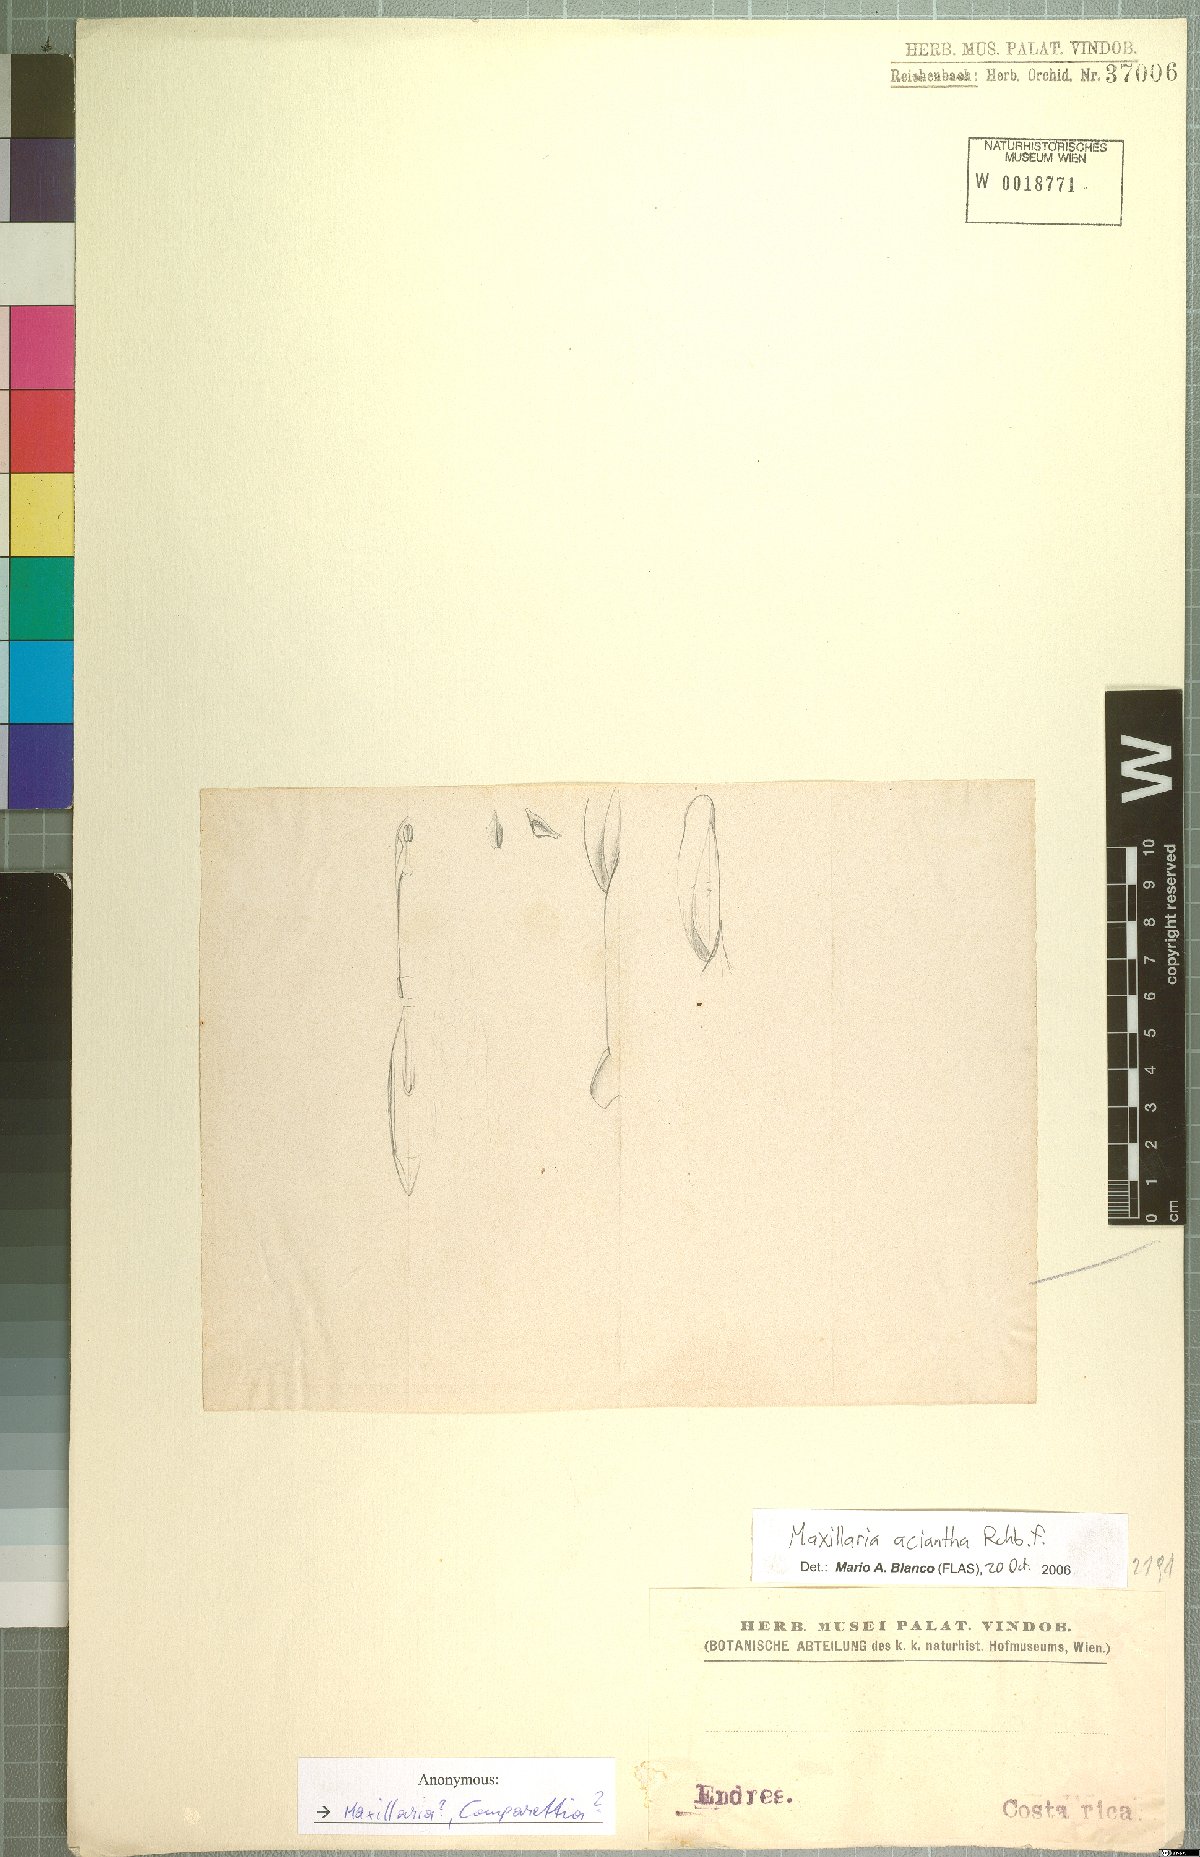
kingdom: Plantae
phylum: Tracheophyta
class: Liliopsida
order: Asparagales
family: Orchidaceae
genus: Maxillaria
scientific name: Maxillaria aciantha
